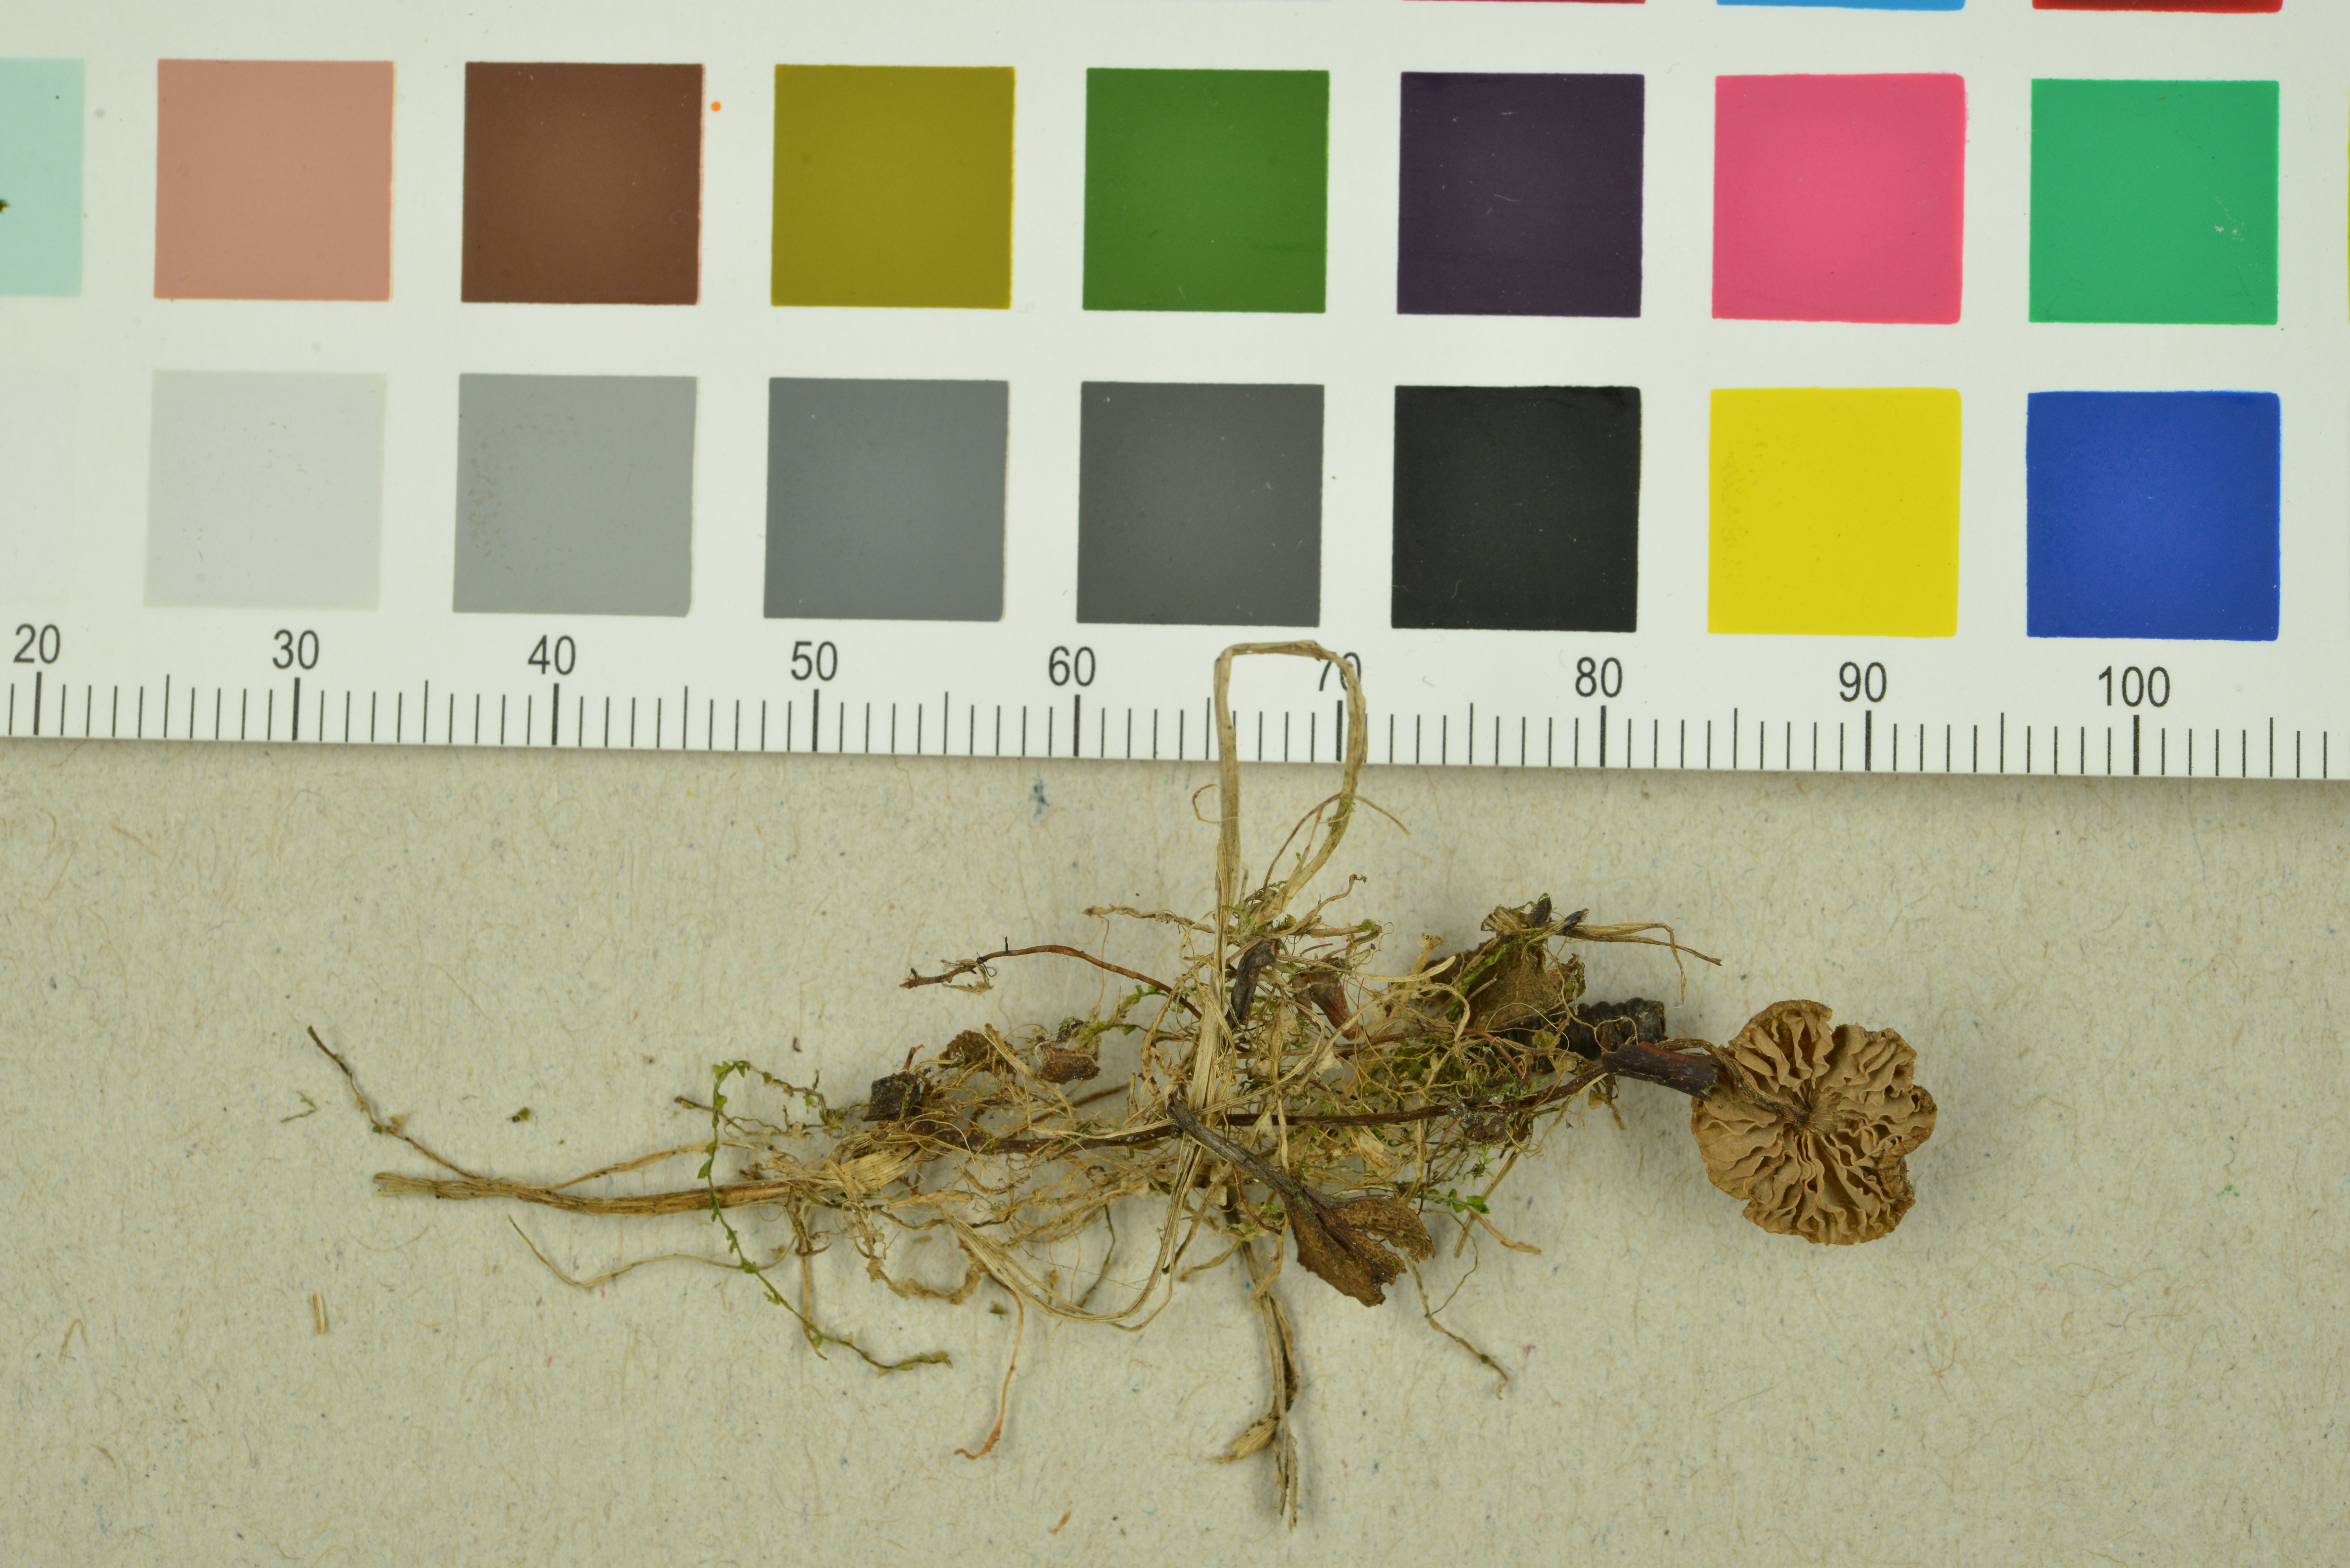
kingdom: Fungi
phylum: Basidiomycota
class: Agaricomycetes
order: Agaricales
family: Entolomataceae
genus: Entoloma
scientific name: Entoloma minutum
